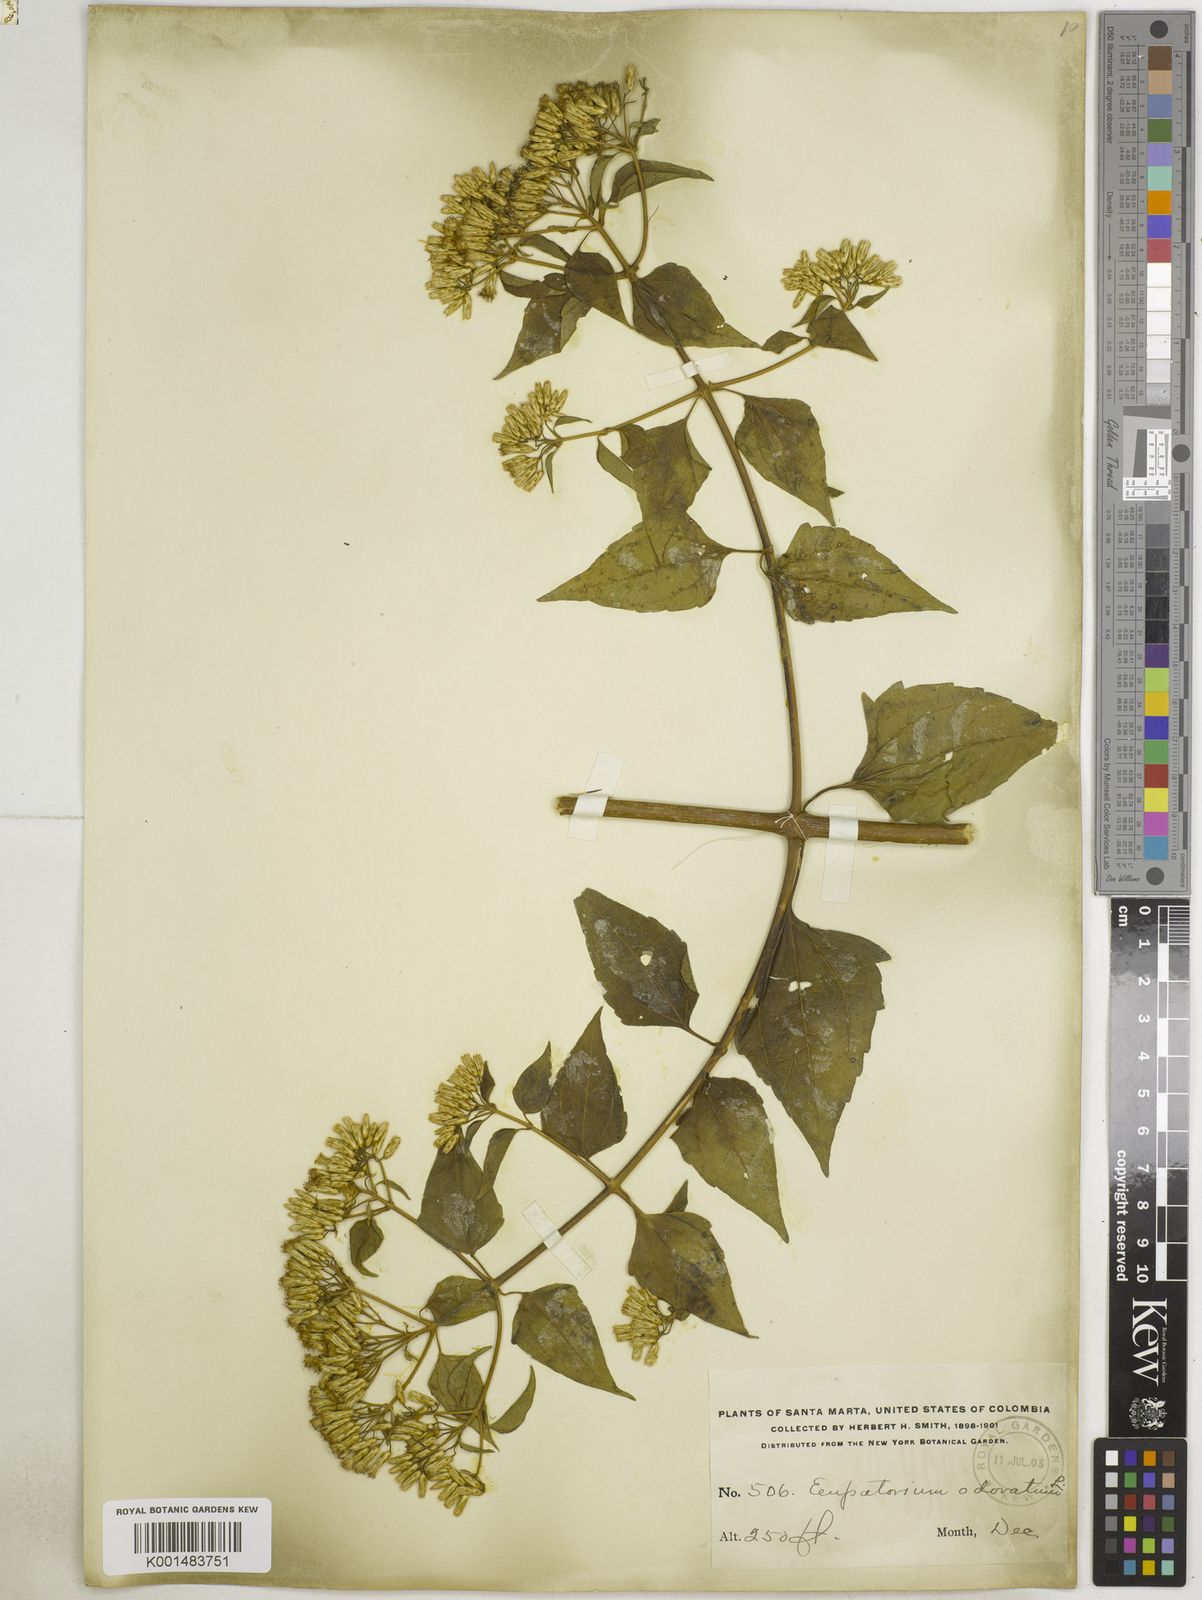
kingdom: Plantae
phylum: Tracheophyta
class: Magnoliopsida
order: Asterales
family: Asteraceae
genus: Chromolaena
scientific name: Chromolaena odorata
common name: Siamweed
